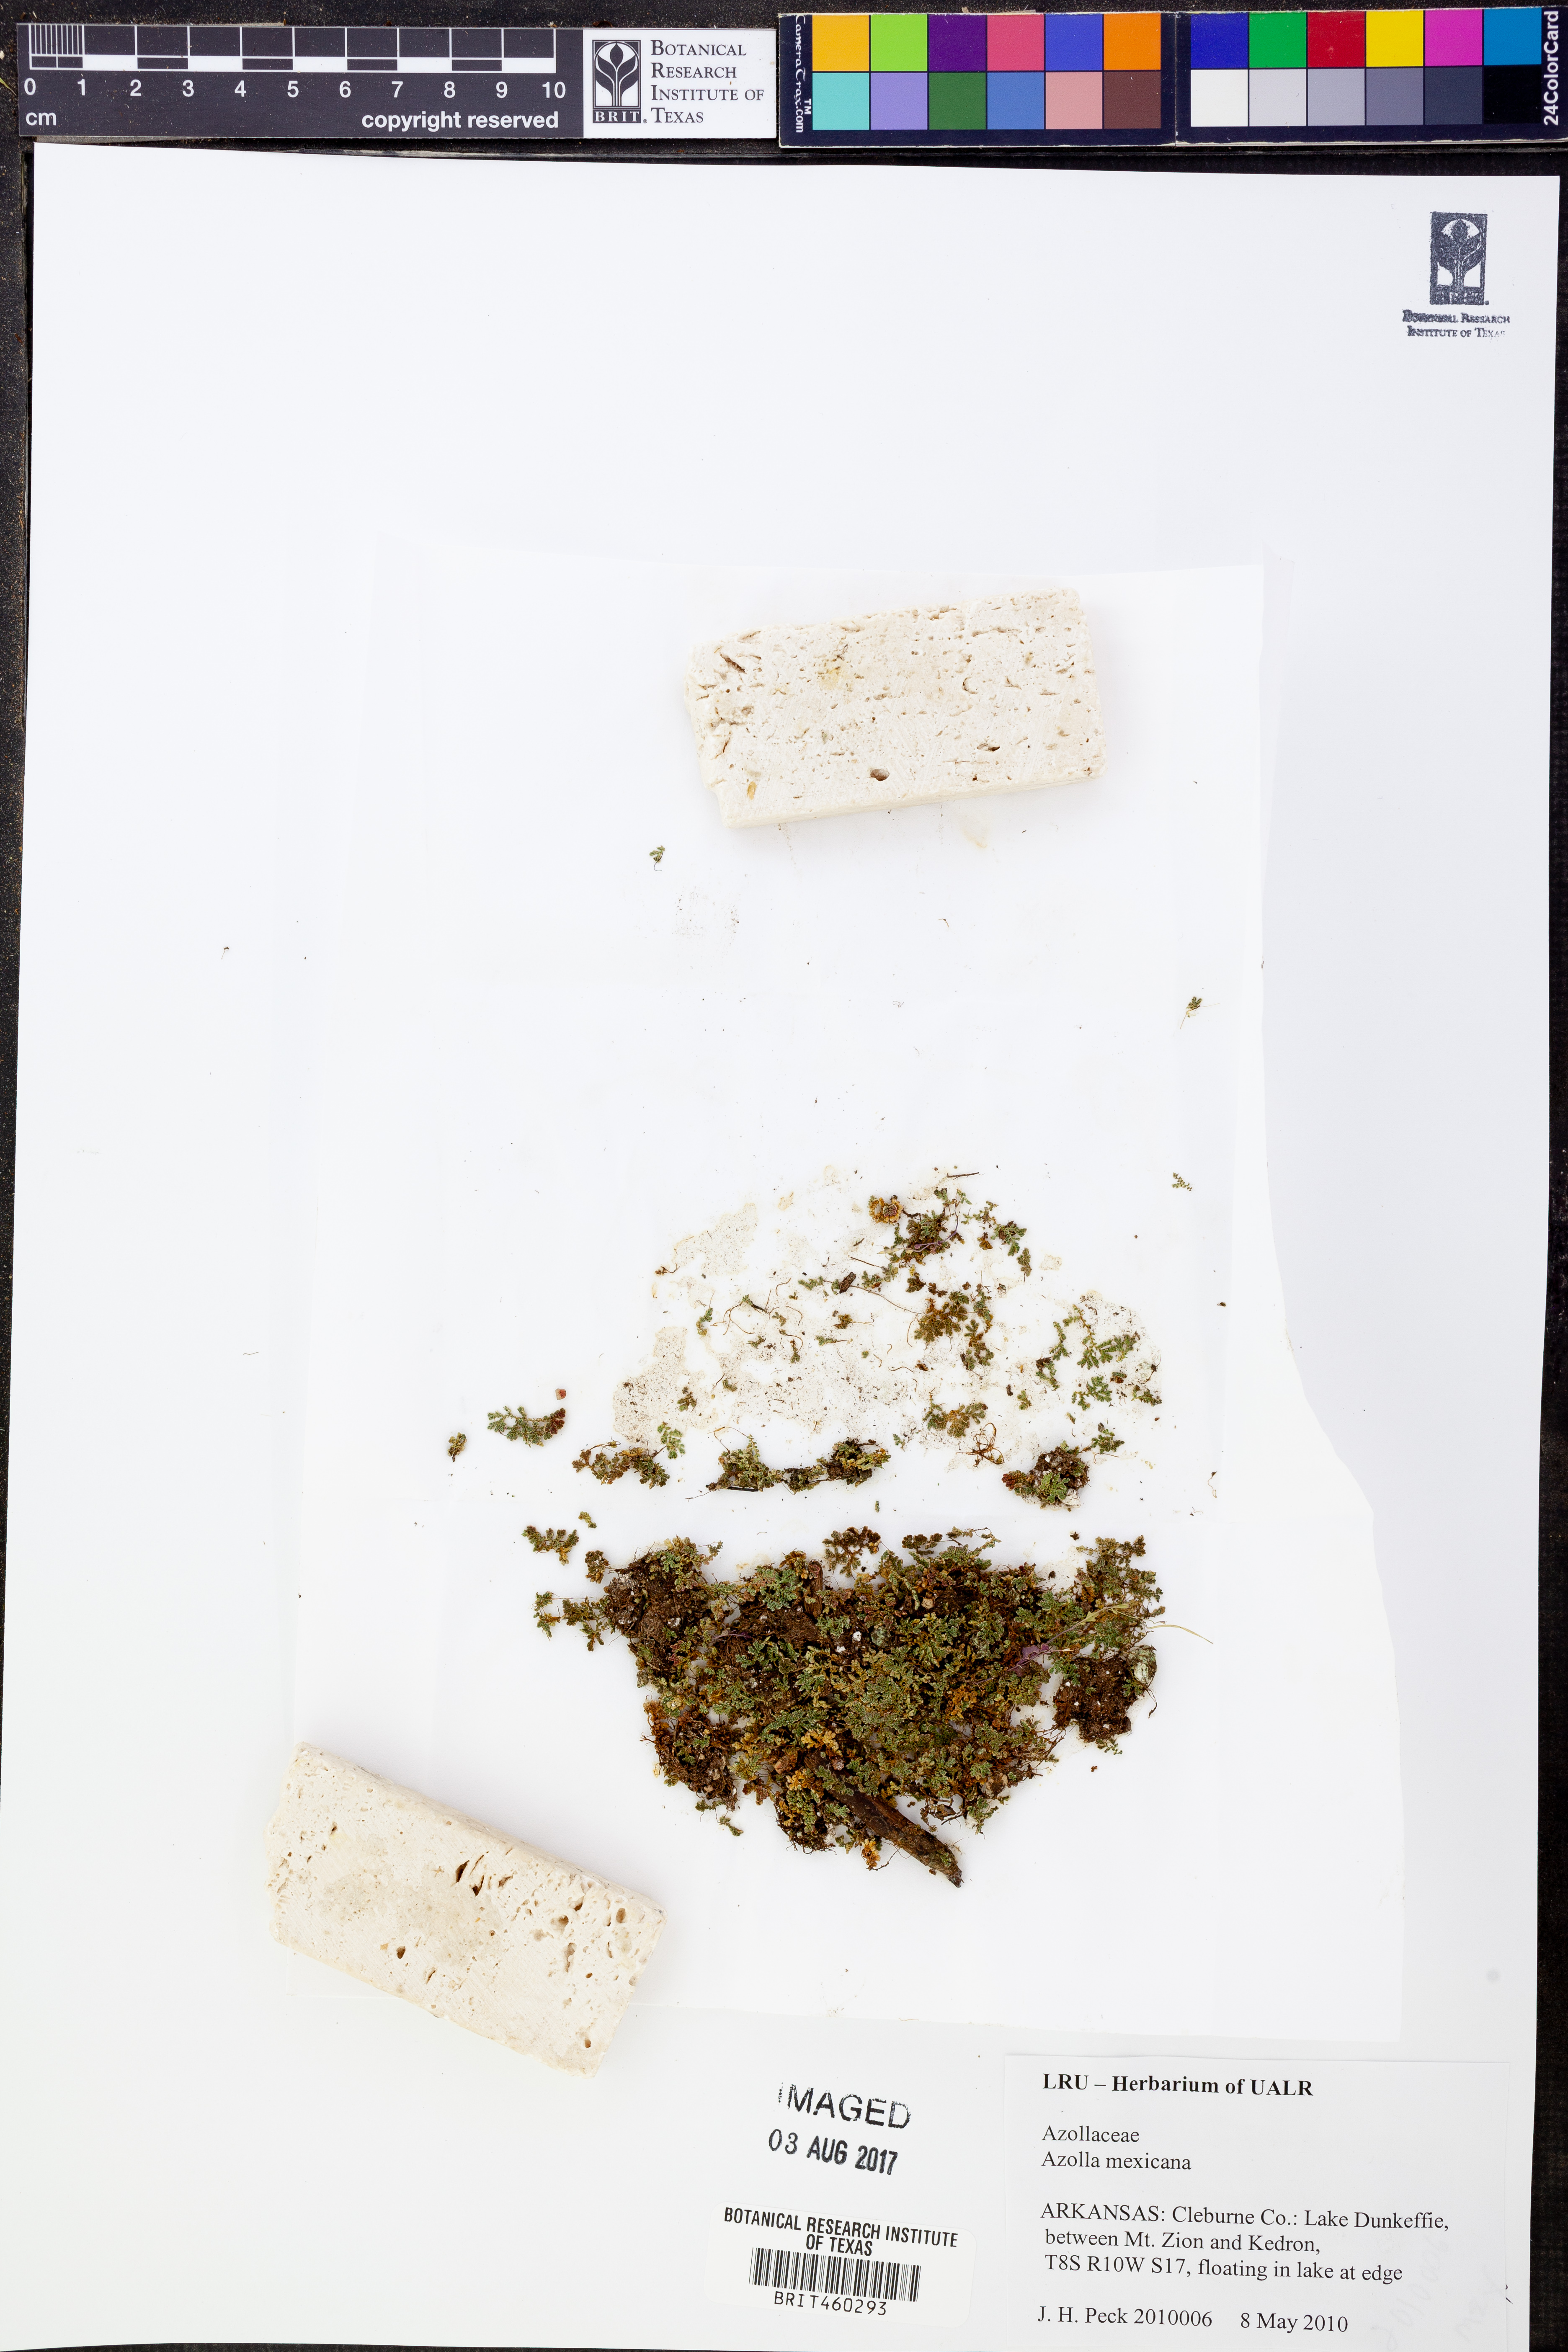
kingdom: Plantae
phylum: Tracheophyta
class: Polypodiopsida
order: Salviniales
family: Salviniaceae
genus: Azolla
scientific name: Azolla cristata
